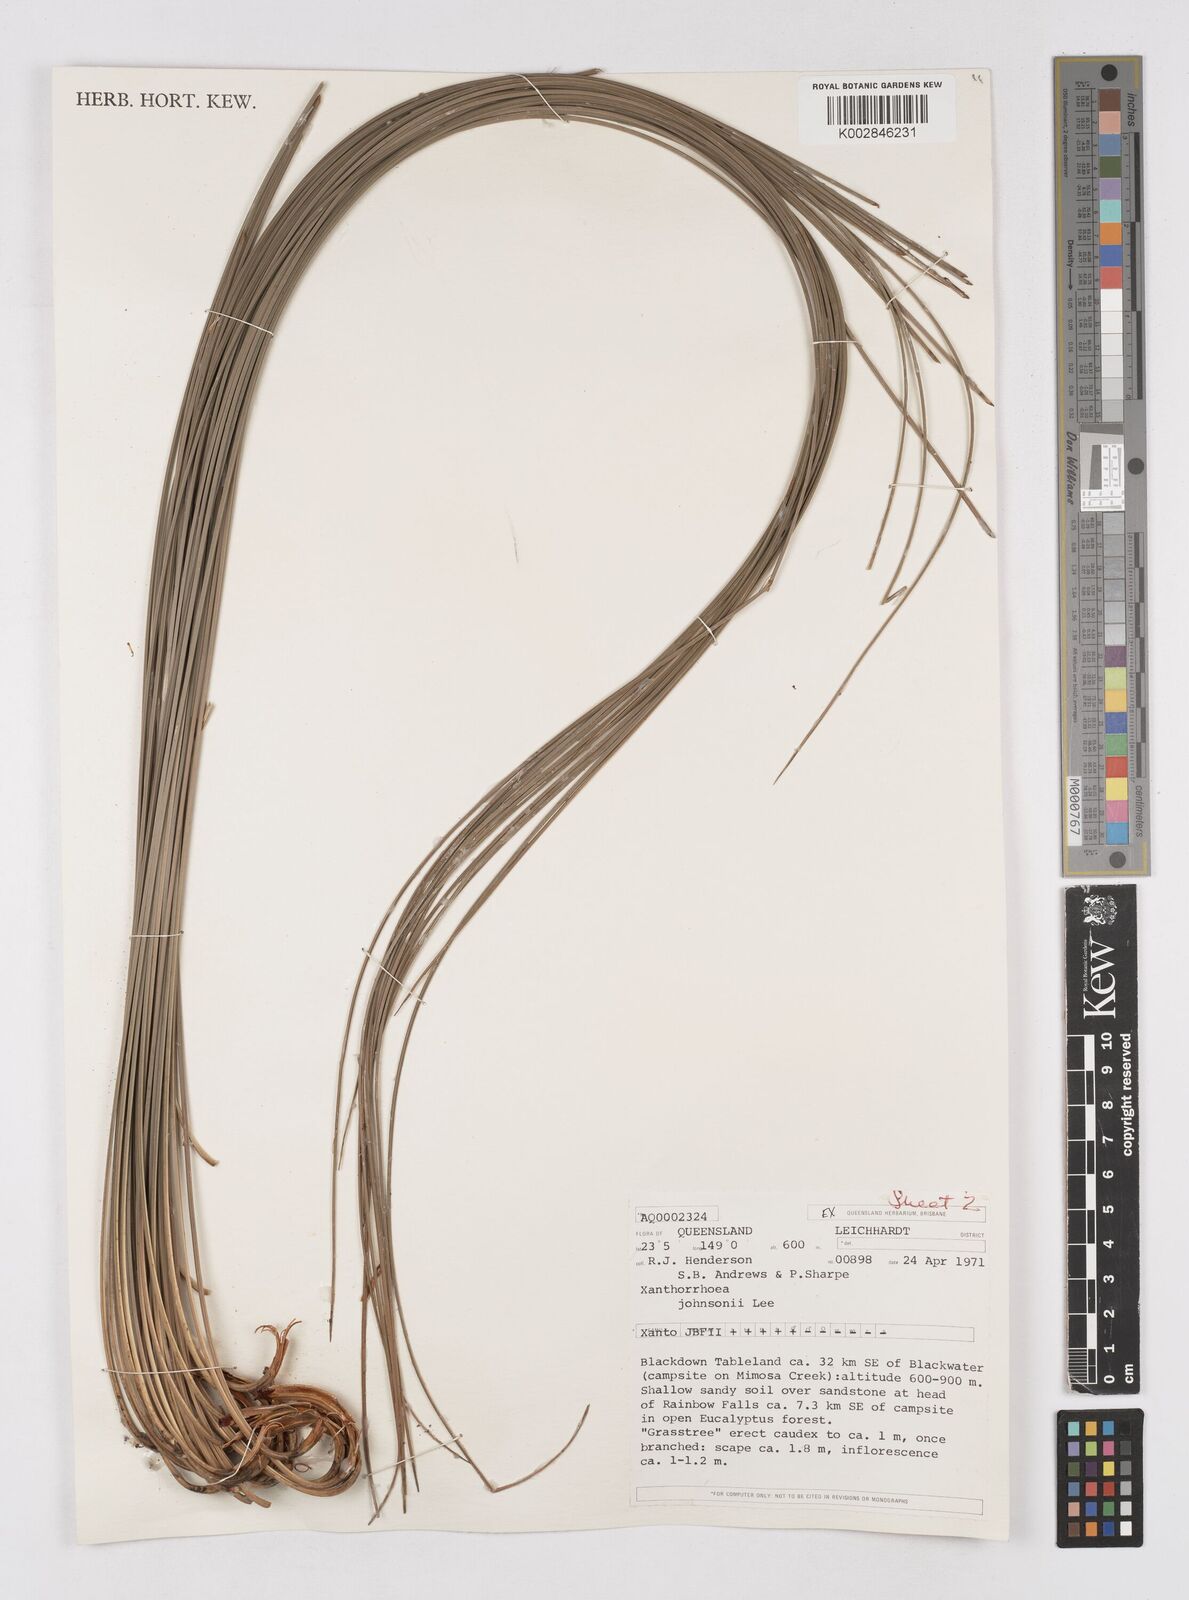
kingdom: Plantae
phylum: Tracheophyta
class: Liliopsida
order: Asparagales
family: Asphodelaceae
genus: Xanthorrhoea
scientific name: Xanthorrhoea johnsonii
